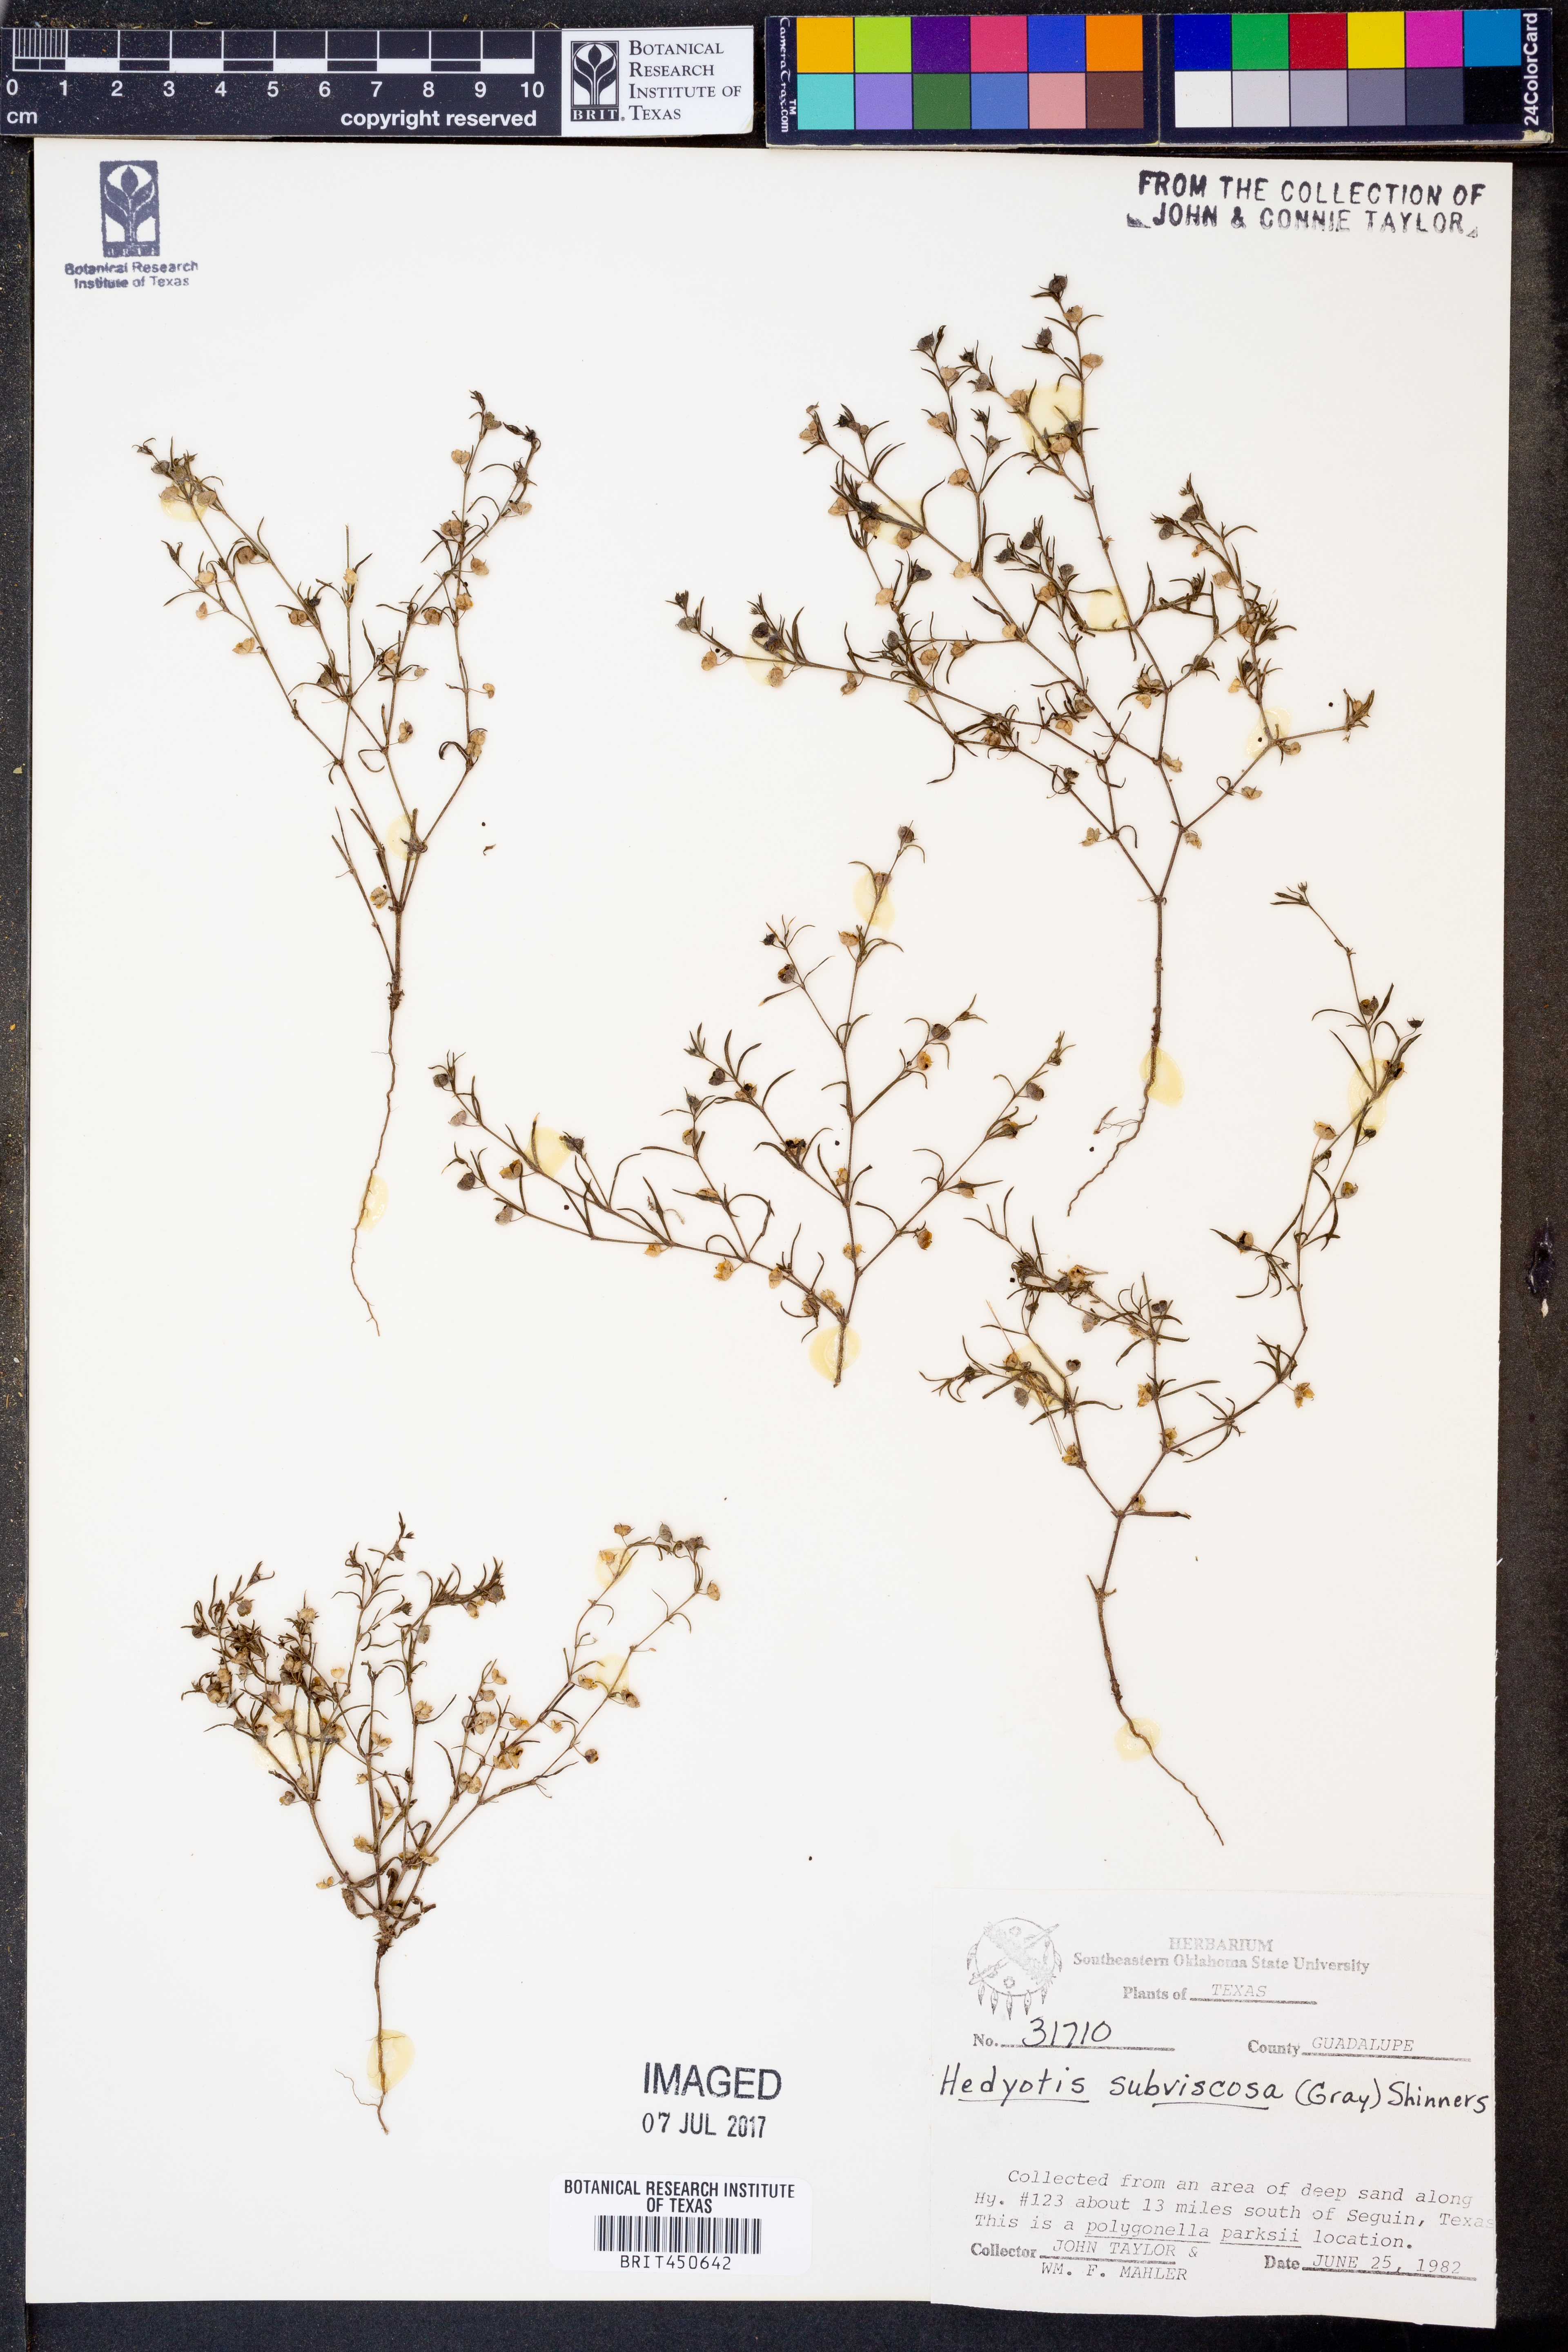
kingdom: Plantae
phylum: Tracheophyta
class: Magnoliopsida
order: Gentianales
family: Rubiaceae
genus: Houstonia
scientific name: Houstonia subviscosa
